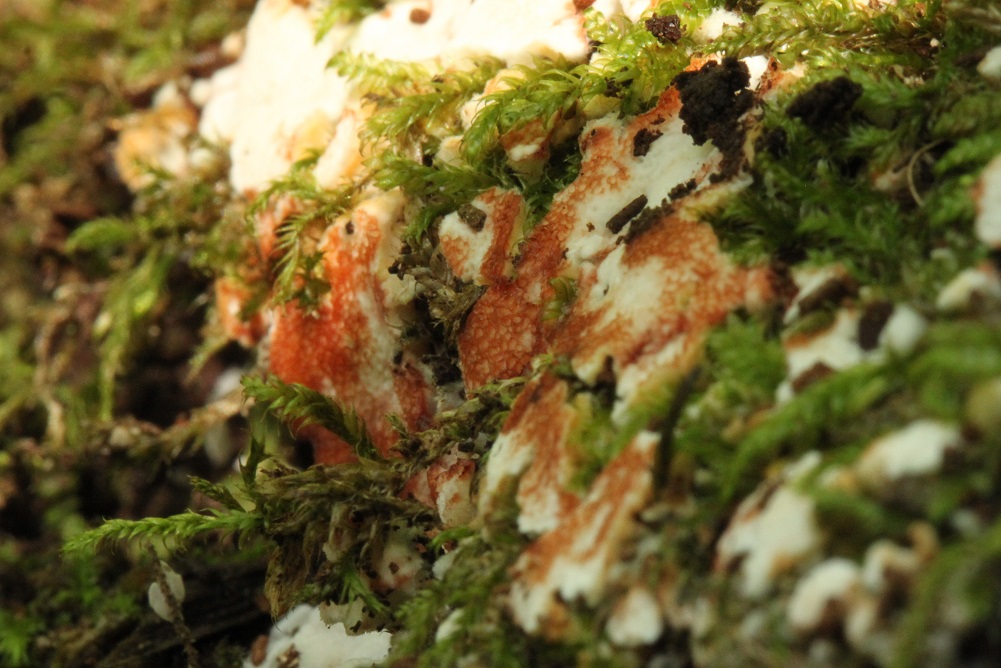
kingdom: Fungi
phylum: Basidiomycota
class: Agaricomycetes
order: Polyporales
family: Meripilaceae
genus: Rigidoporus
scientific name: Rigidoporus sanguinolentus
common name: blod-skorpeporesvamp
